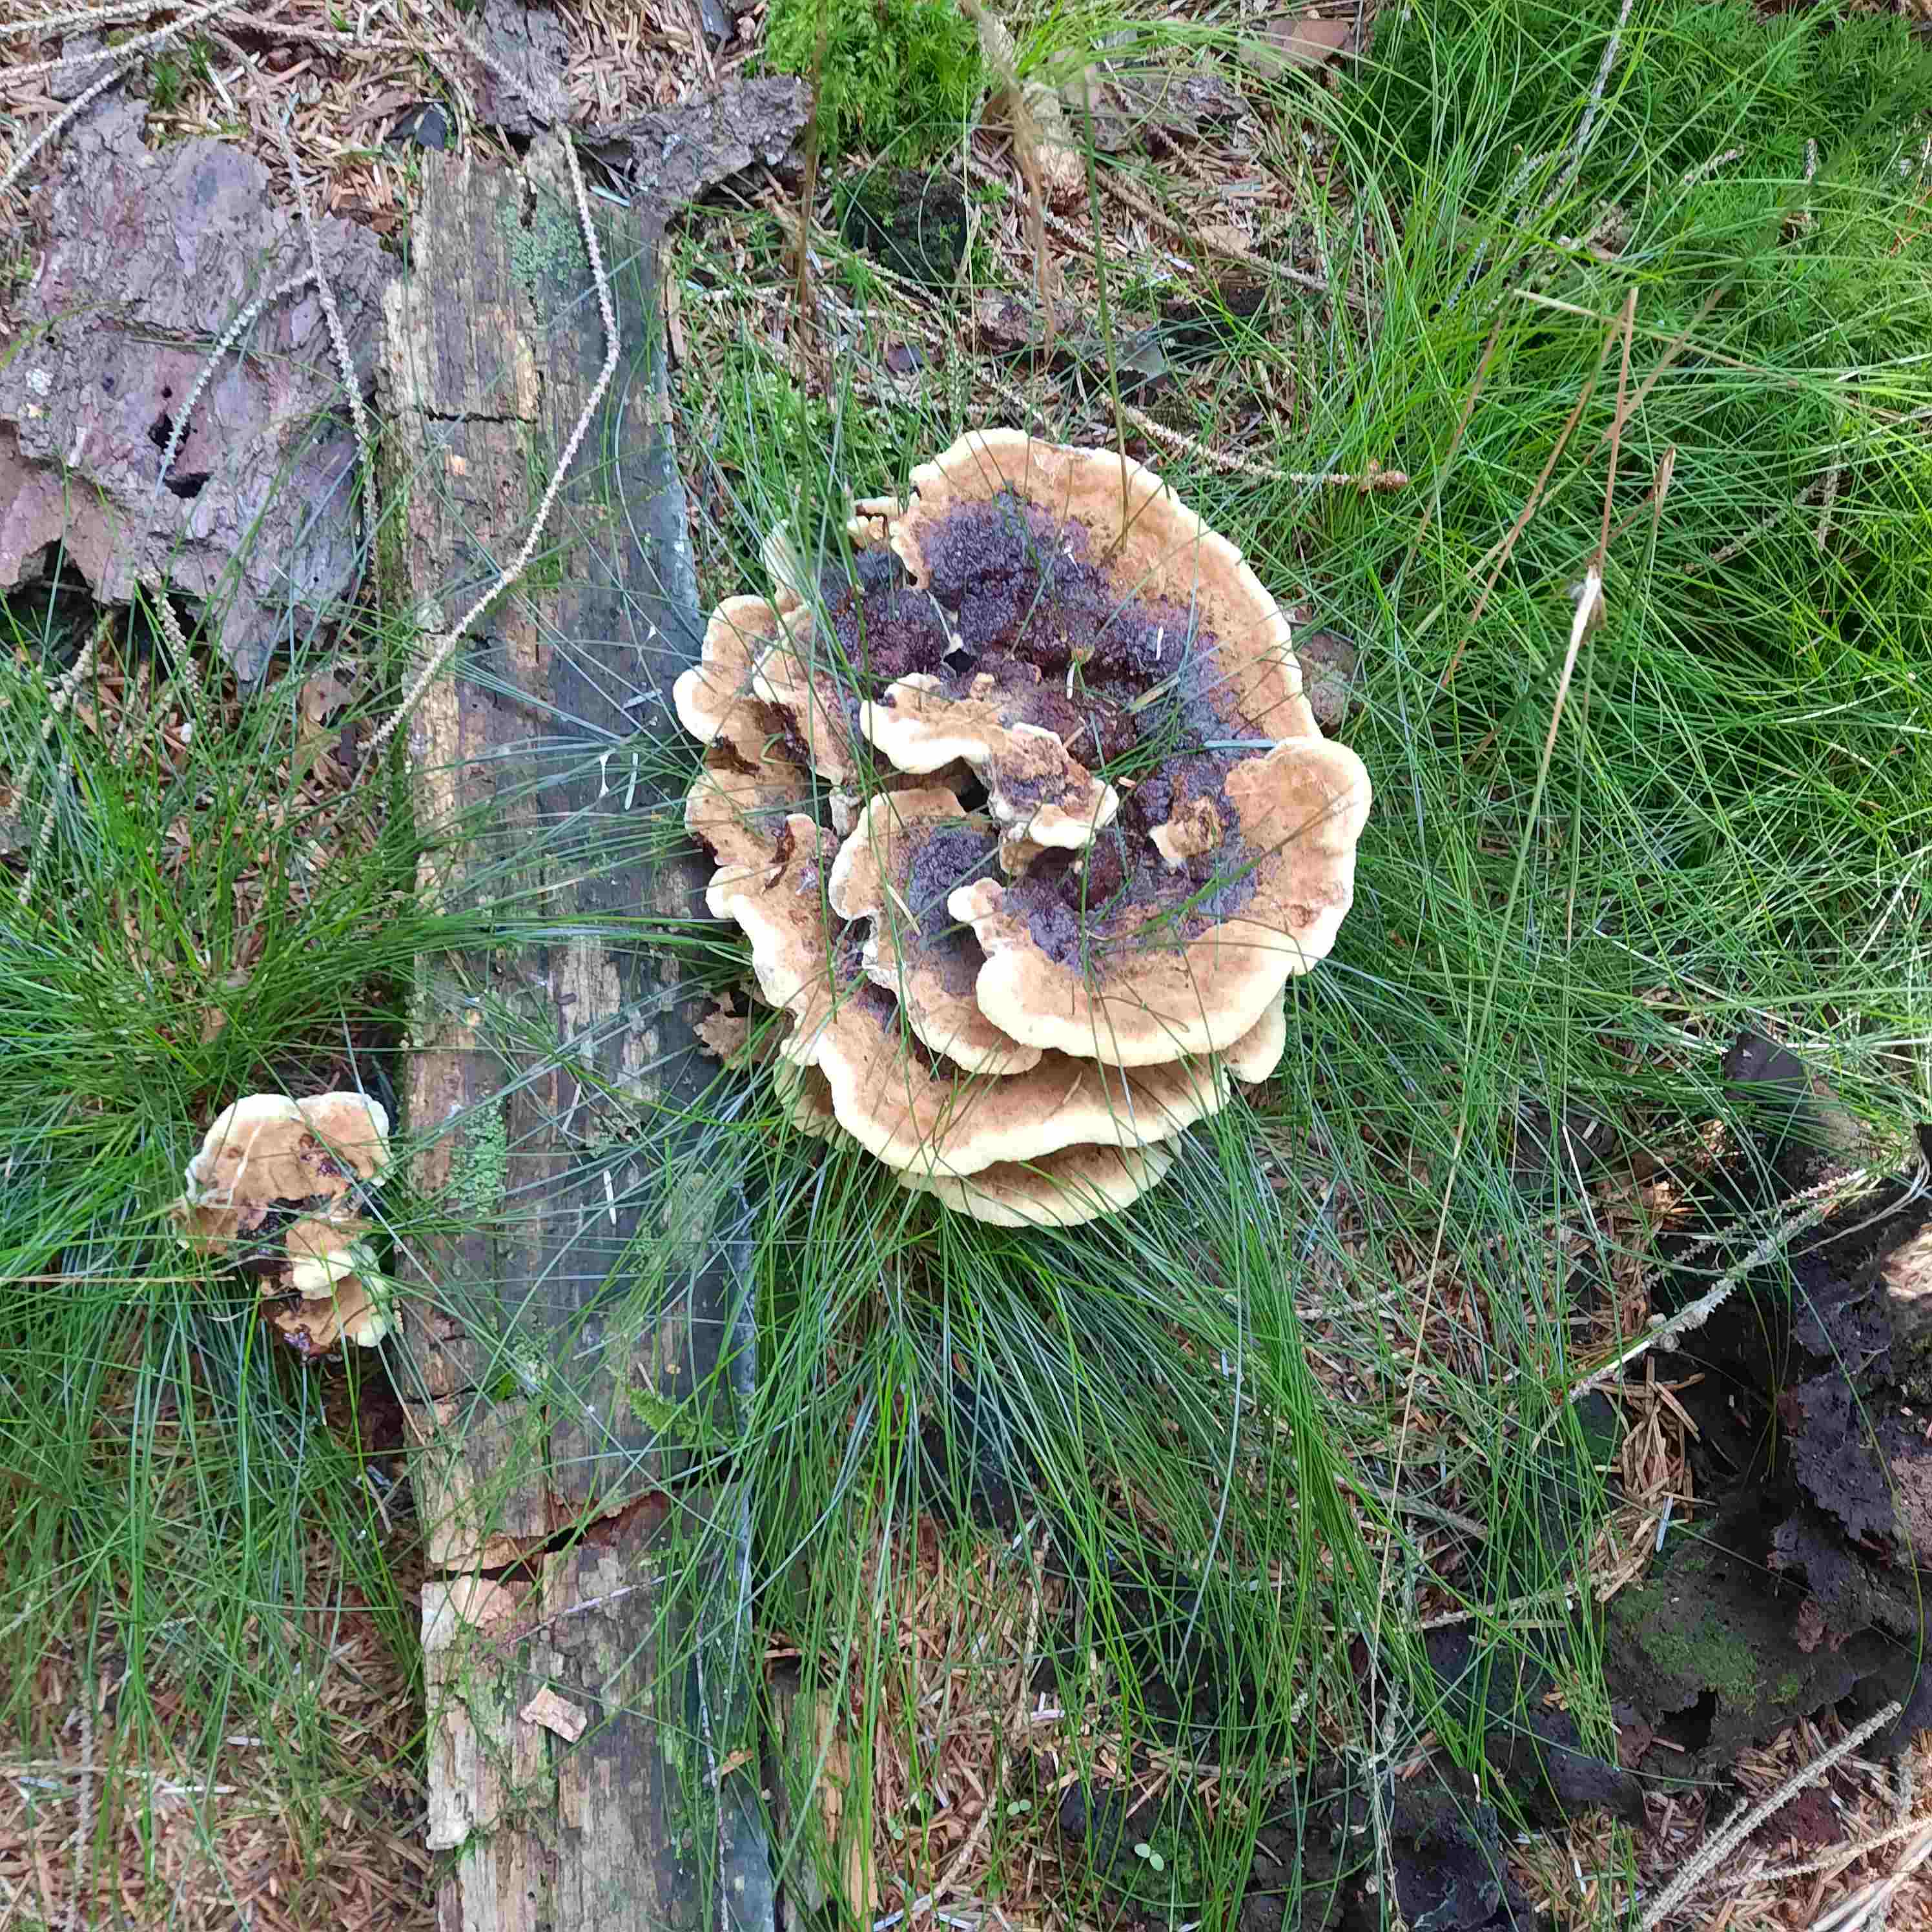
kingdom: Fungi
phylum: Basidiomycota
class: Agaricomycetes
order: Polyporales
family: Laetiporaceae
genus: Phaeolus
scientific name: Phaeolus schweinitzii
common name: brunporesvamp
